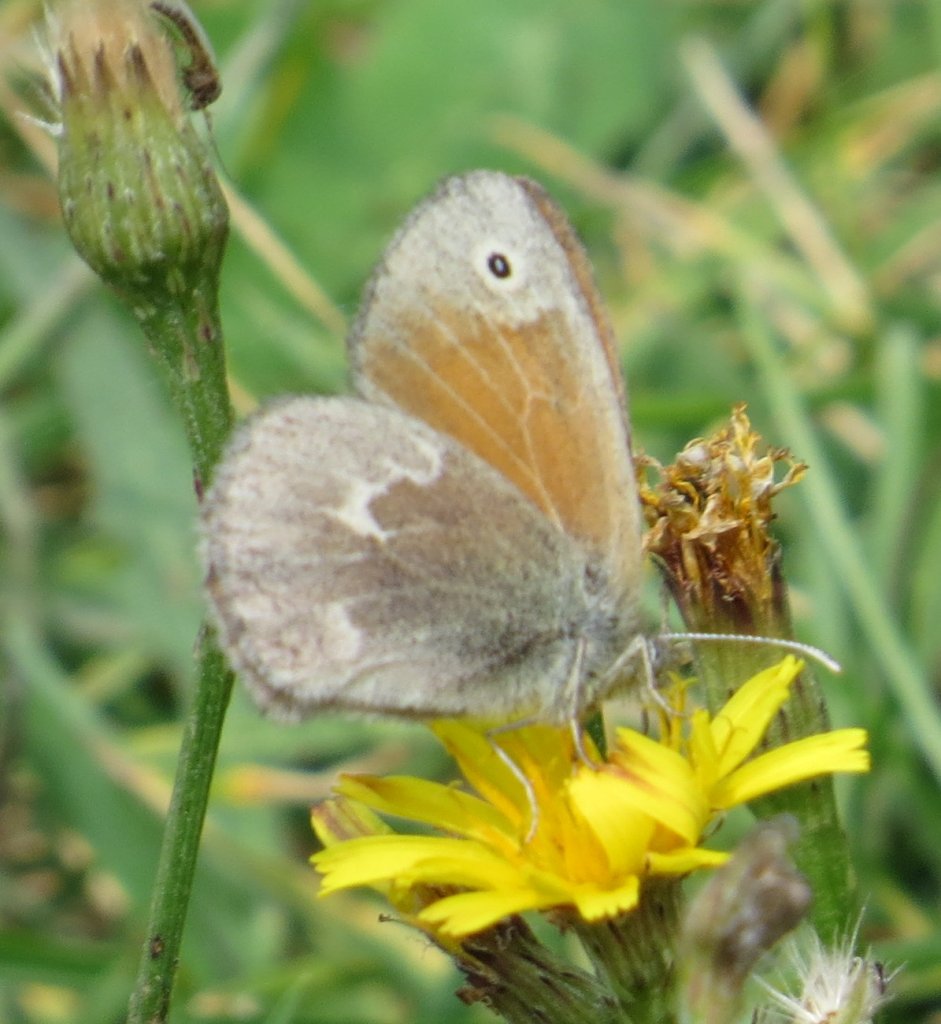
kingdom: Animalia
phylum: Arthropoda
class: Insecta
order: Lepidoptera
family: Nymphalidae
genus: Coenonympha
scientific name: Coenonympha tullia
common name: Large Heath
